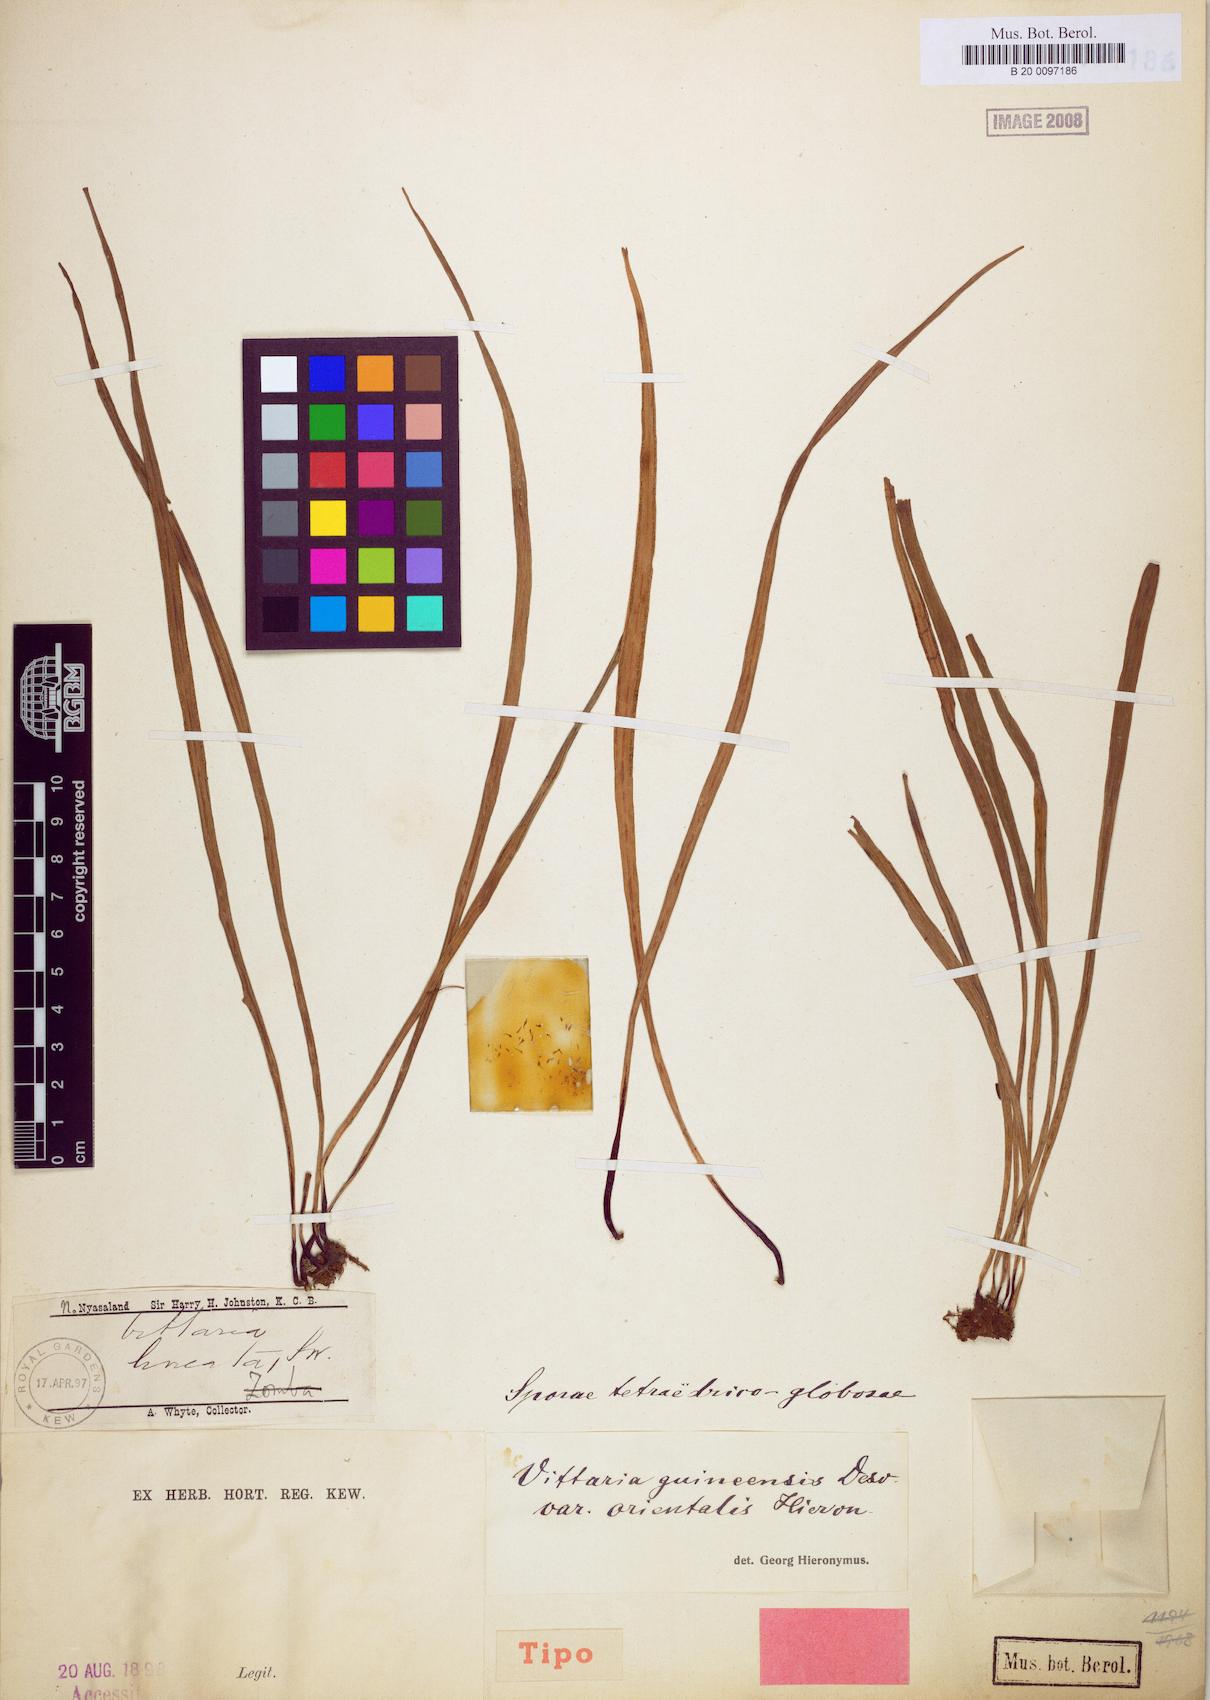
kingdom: Plantae
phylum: Tracheophyta
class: Polypodiopsida
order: Polypodiales
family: Pteridaceae
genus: Haplopteris
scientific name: Haplopteris guineensis
